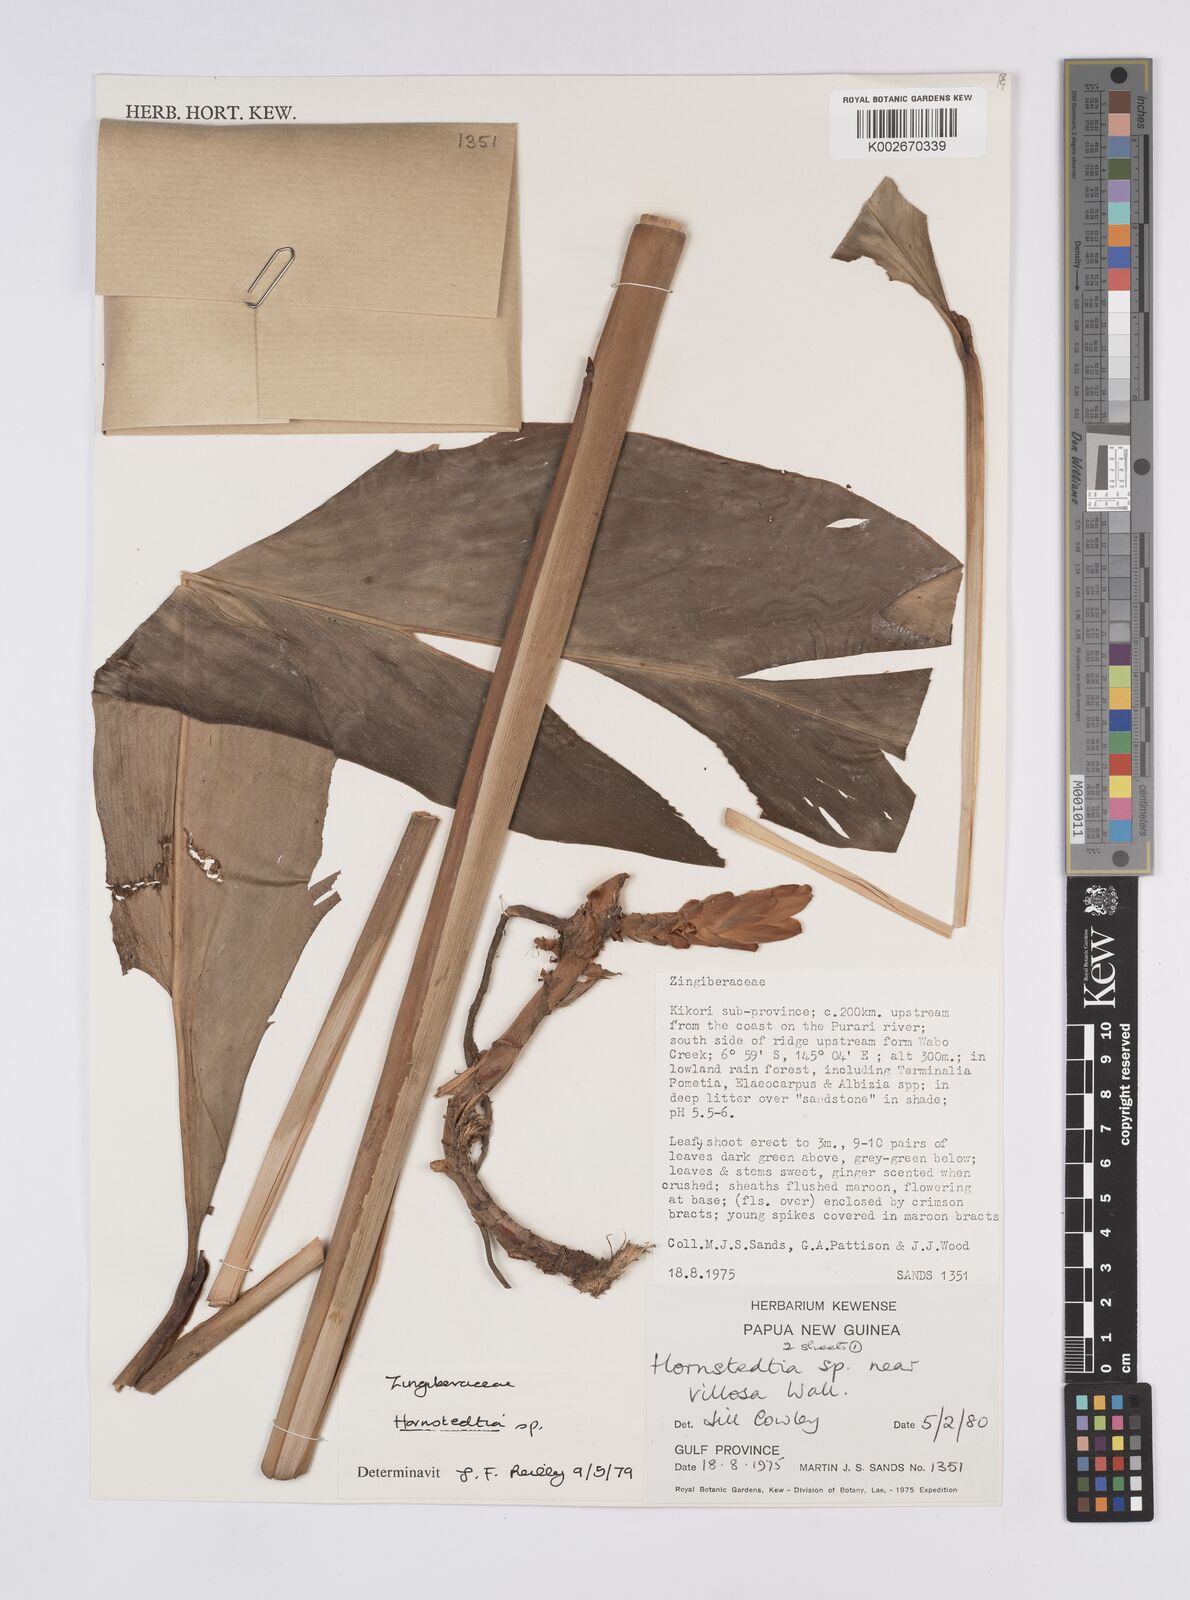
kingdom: Plantae
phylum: Tracheophyta
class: Liliopsida
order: Zingiberales
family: Zingiberaceae
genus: Hornstedtia
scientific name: Hornstedtia
